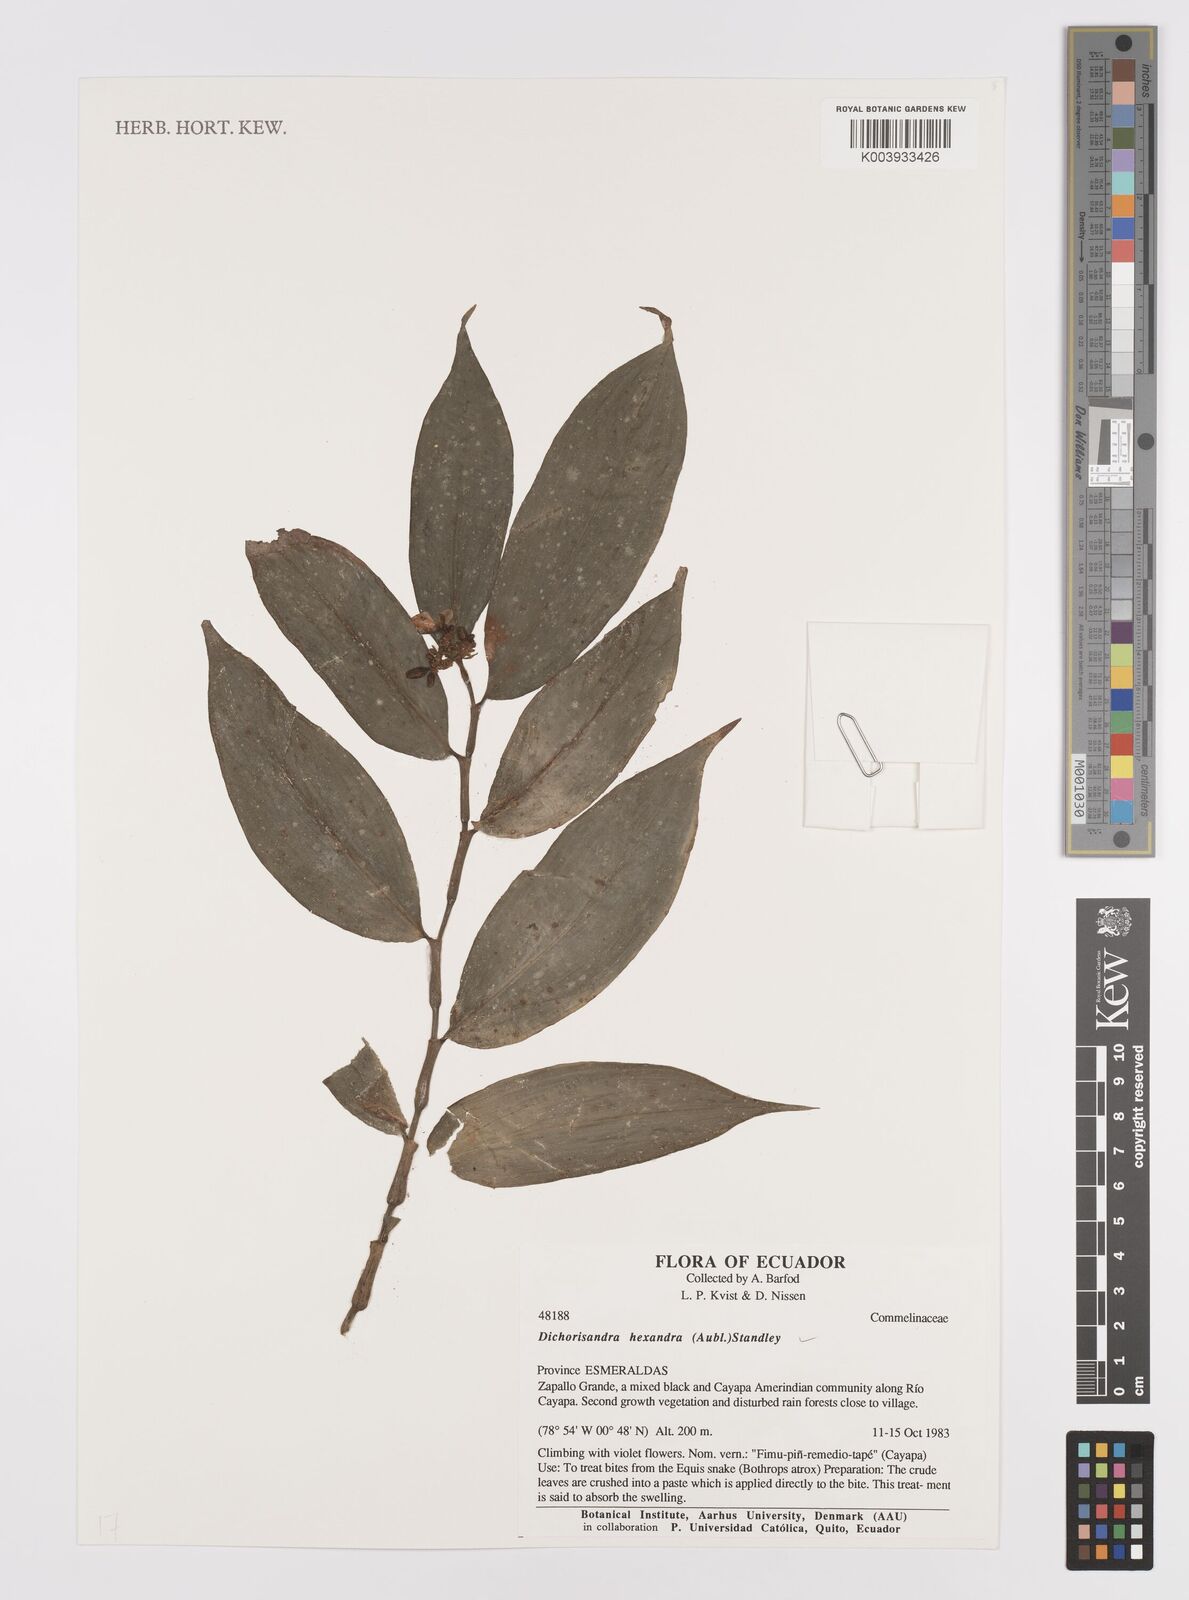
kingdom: Plantae
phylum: Tracheophyta
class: Liliopsida
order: Commelinales
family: Commelinaceae
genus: Dichorisandra
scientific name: Dichorisandra hexandra
